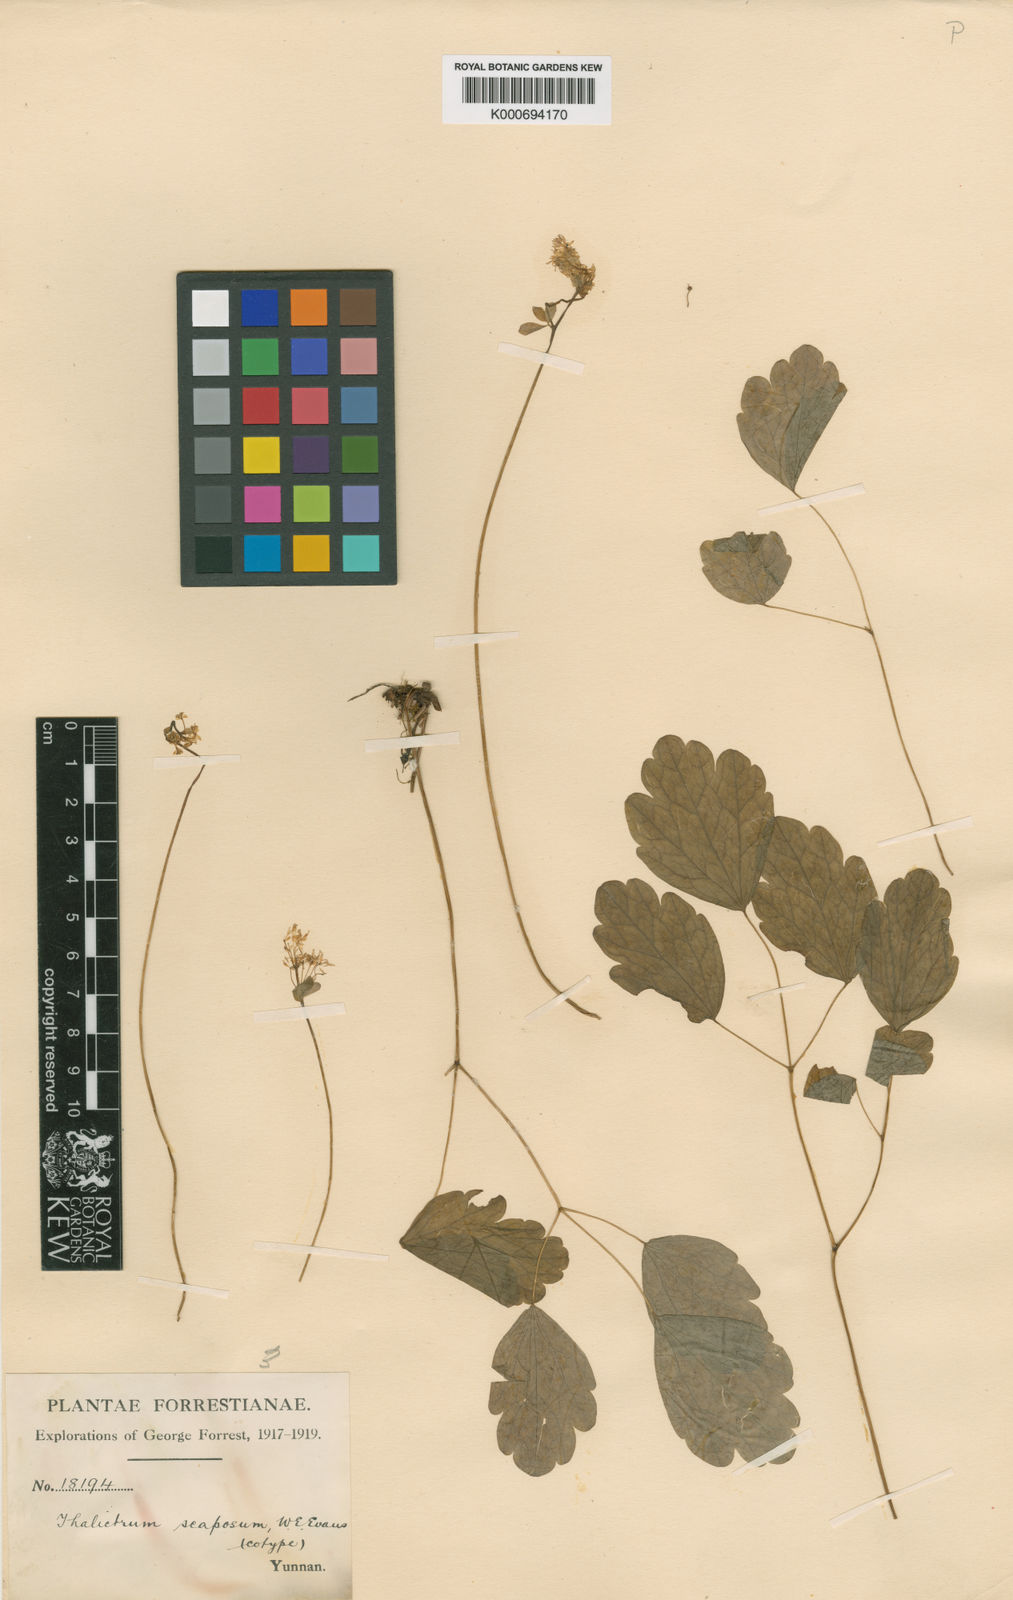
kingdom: Plantae
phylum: Tracheophyta
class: Magnoliopsida
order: Ranunculales
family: Ranunculaceae
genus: Thalictrum
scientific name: Thalictrum microgynum
